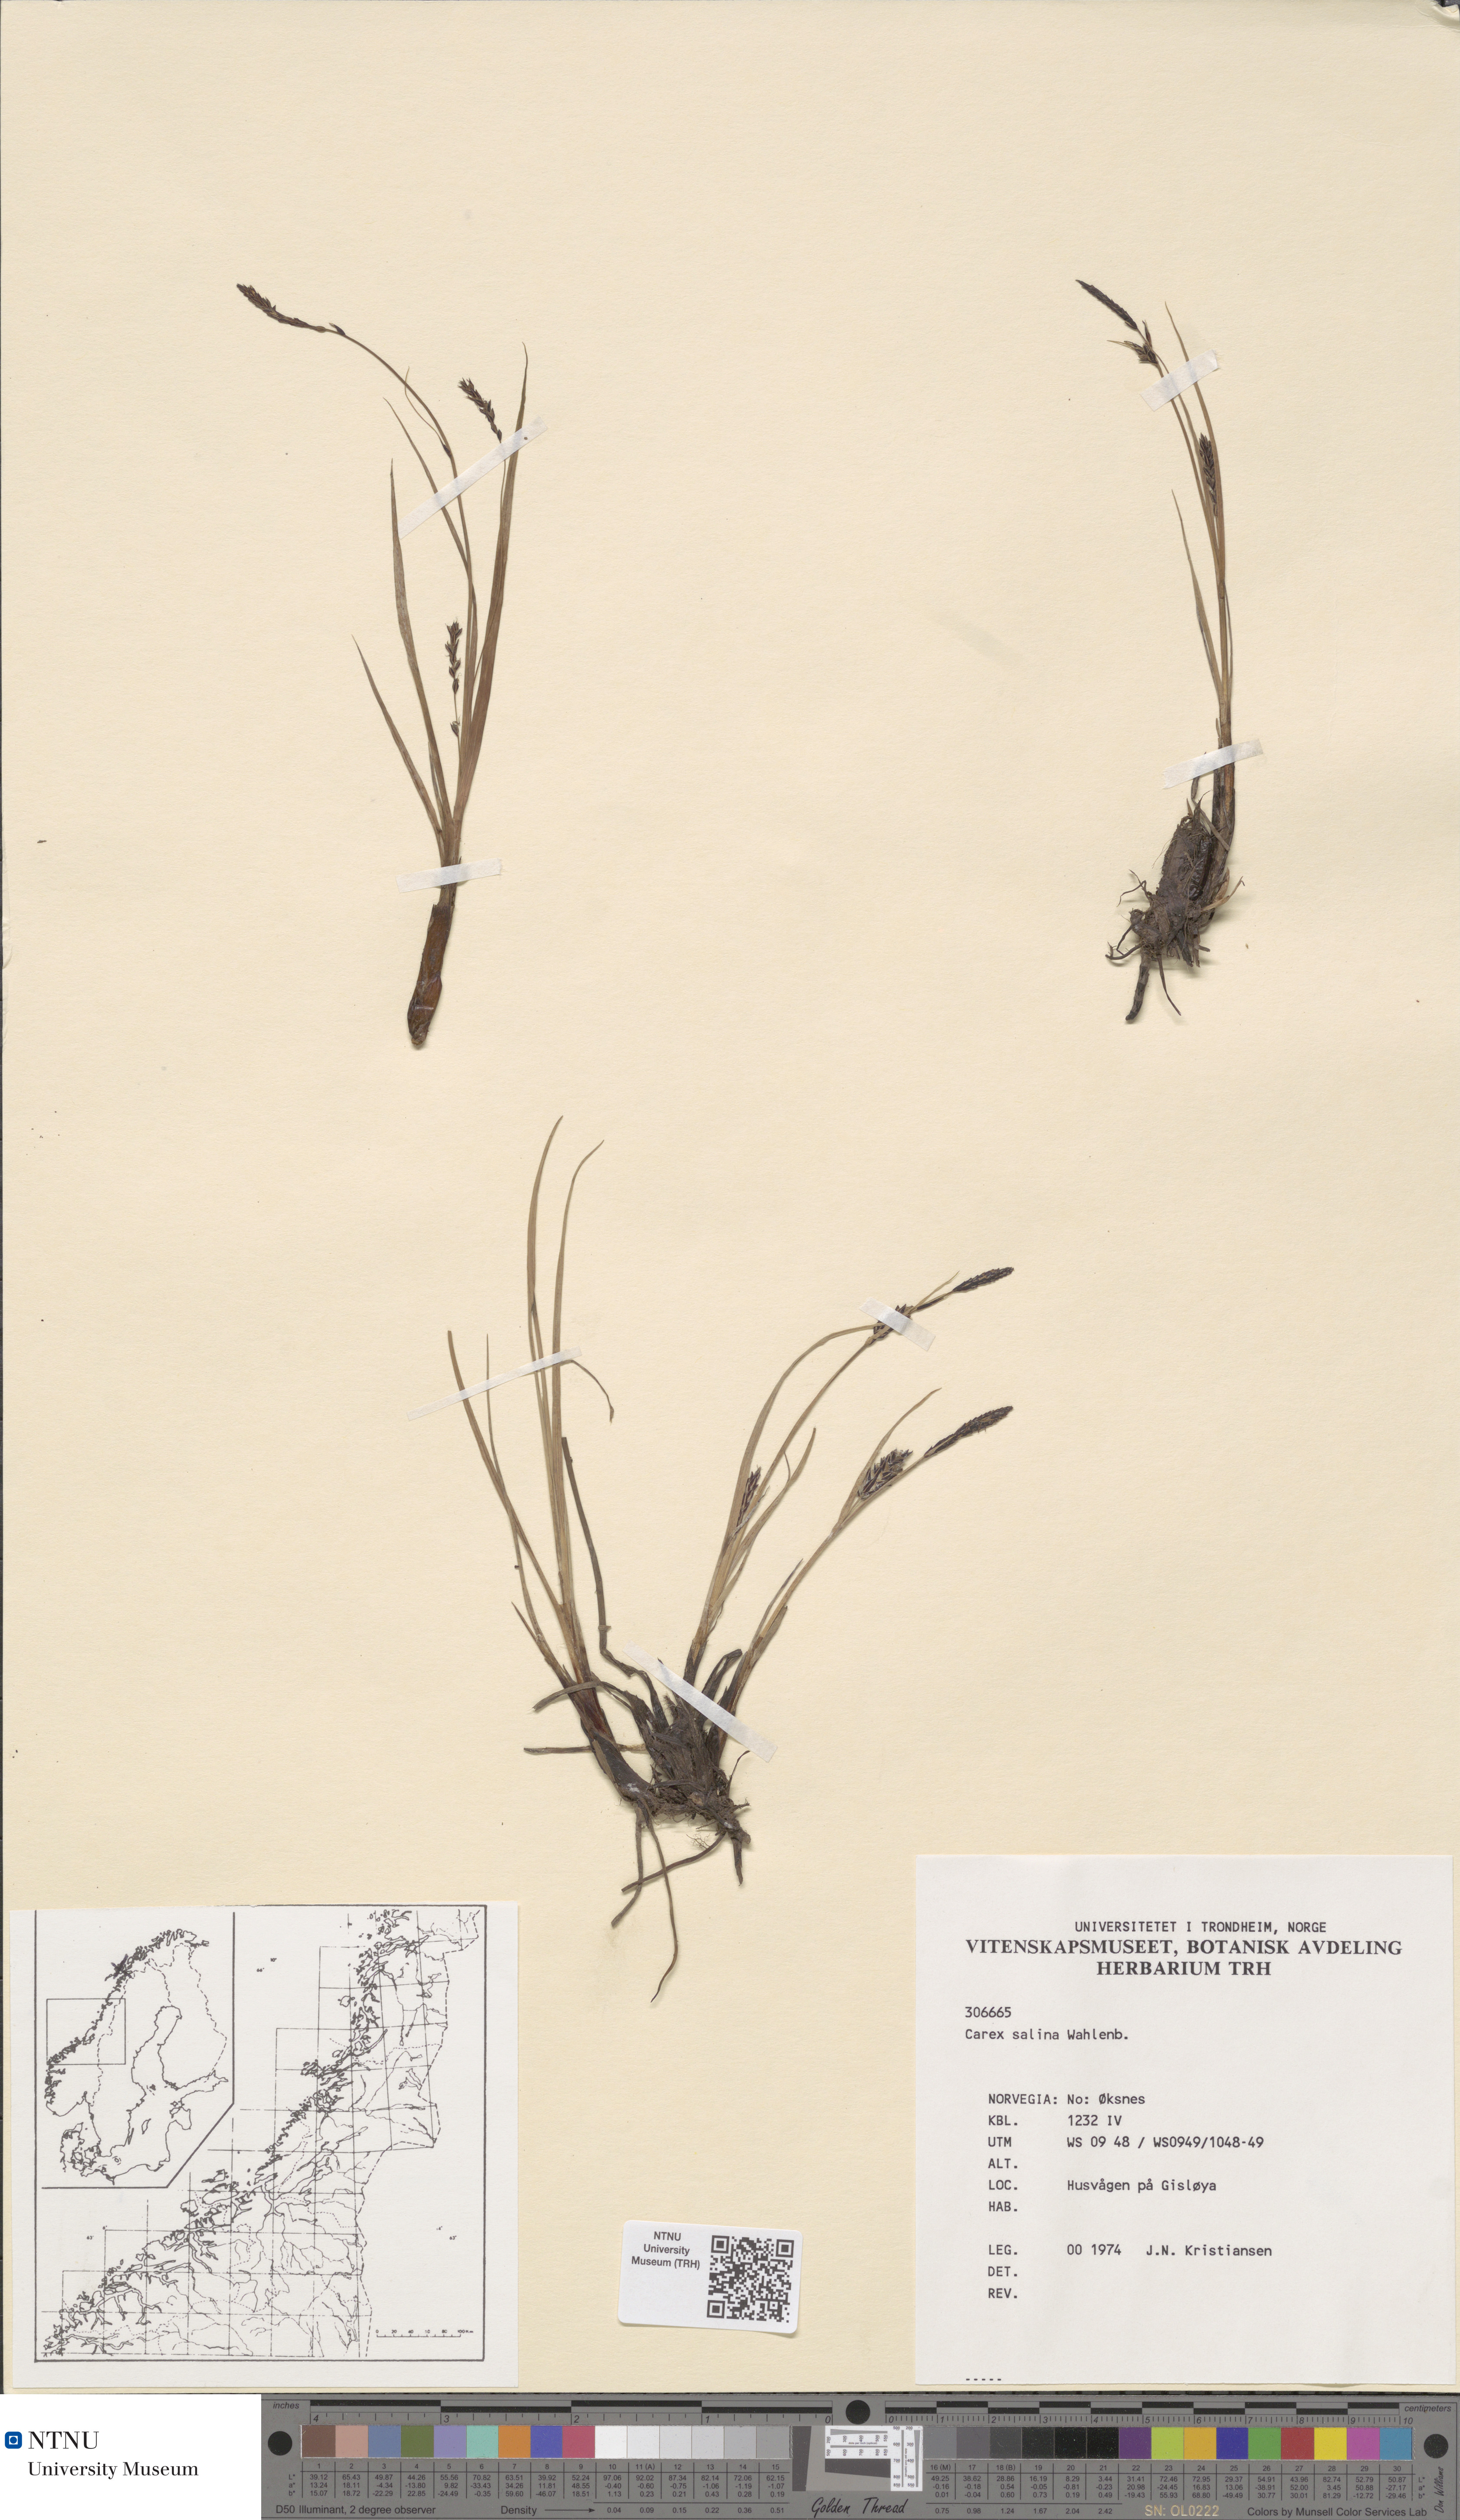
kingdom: Plantae
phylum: Tracheophyta
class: Liliopsida
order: Poales
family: Cyperaceae
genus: Carex
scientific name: Carex salina
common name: Saltmarsh sedge
